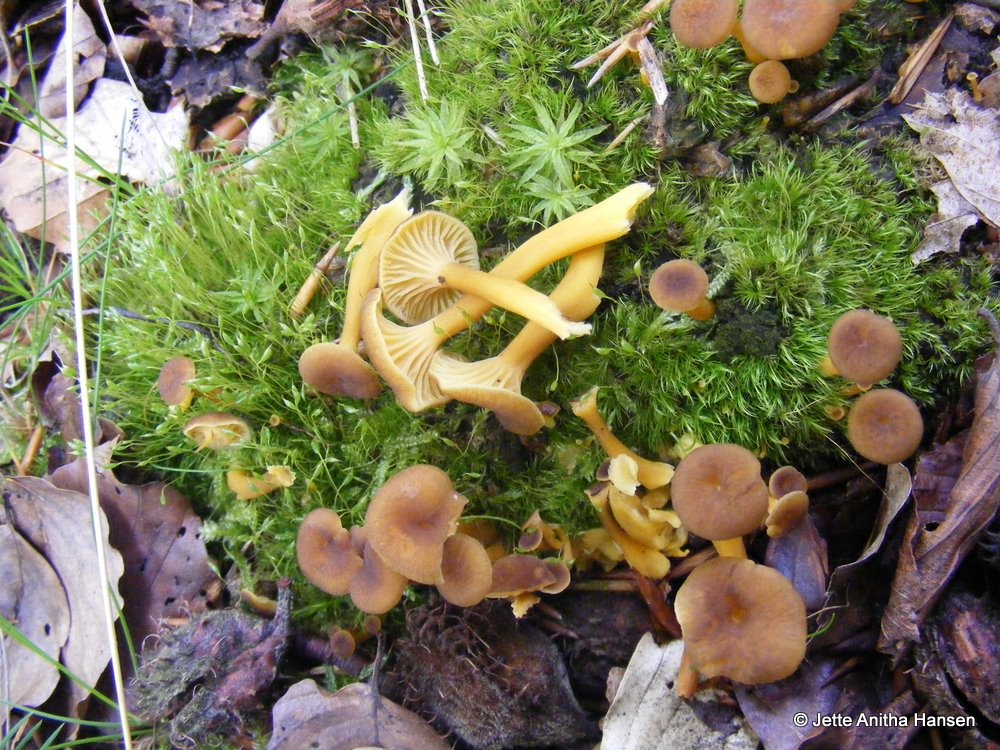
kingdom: Fungi
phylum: Basidiomycota
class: Agaricomycetes
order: Cantharellales
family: Hydnaceae
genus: Craterellus
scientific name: Craterellus tubaeformis
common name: tragt-kantarel
